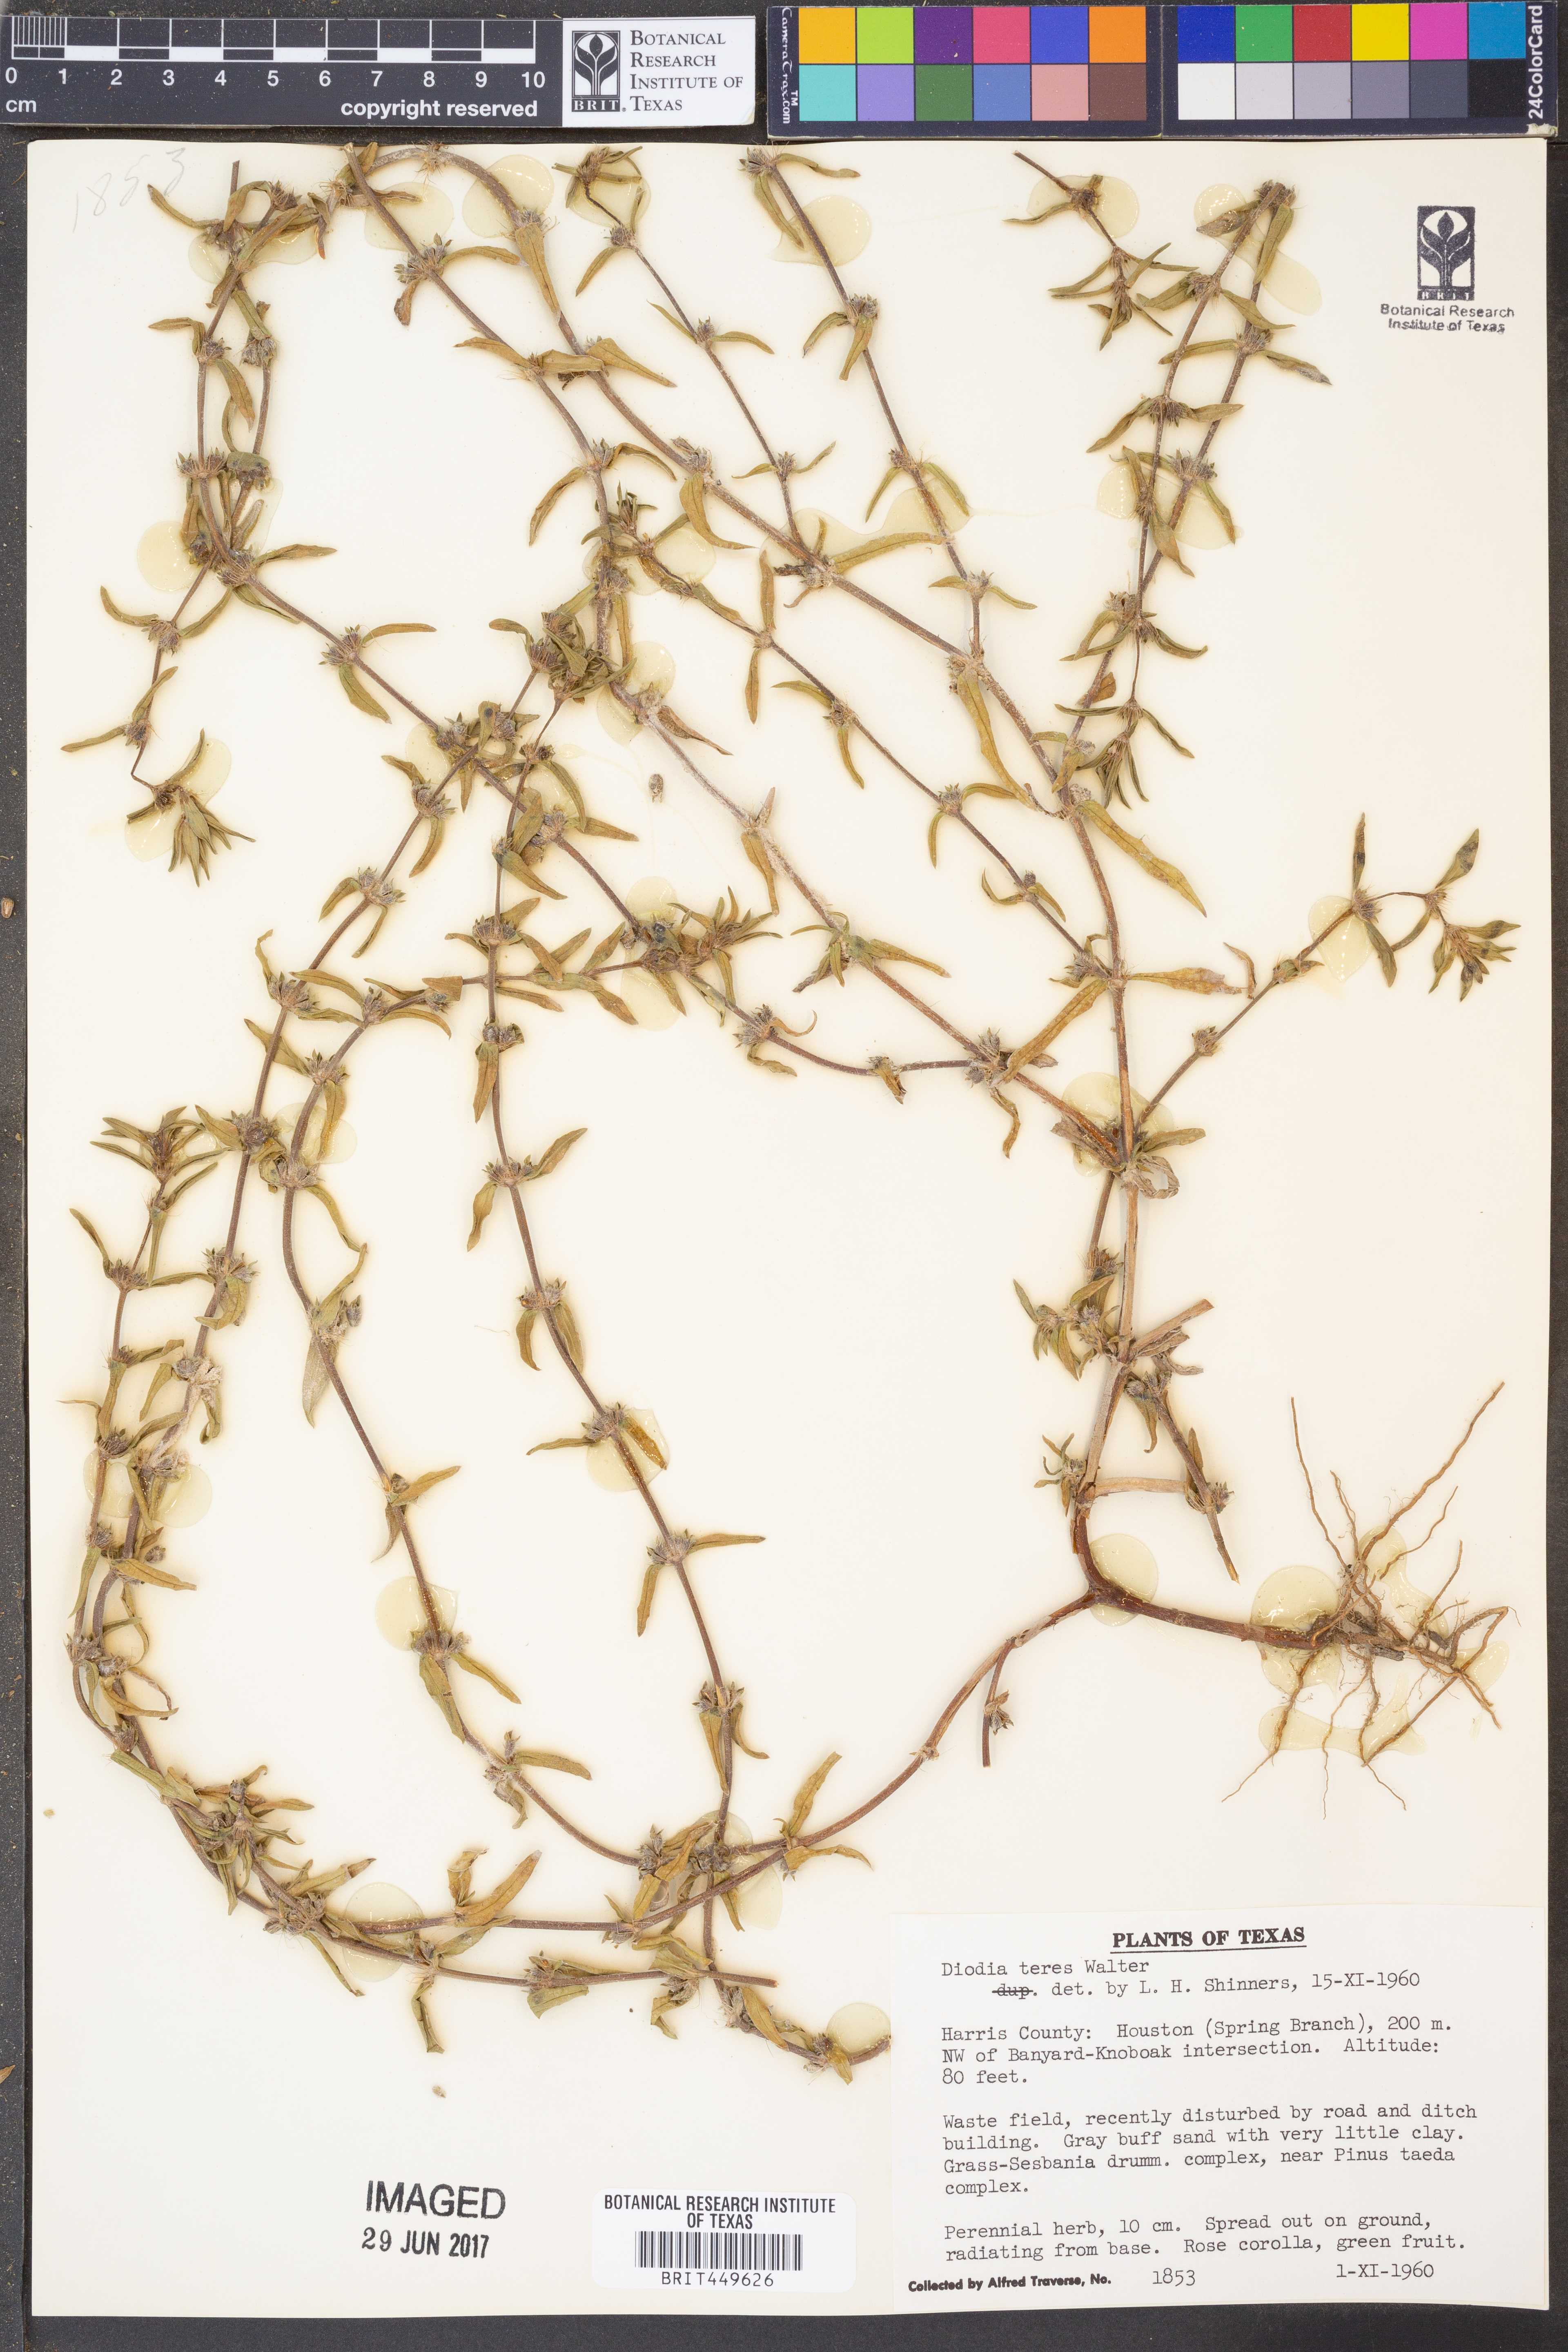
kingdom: Plantae
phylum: Tracheophyta
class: Magnoliopsida
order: Gentianales
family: Rubiaceae
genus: Hexasepalum
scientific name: Hexasepalum teres
